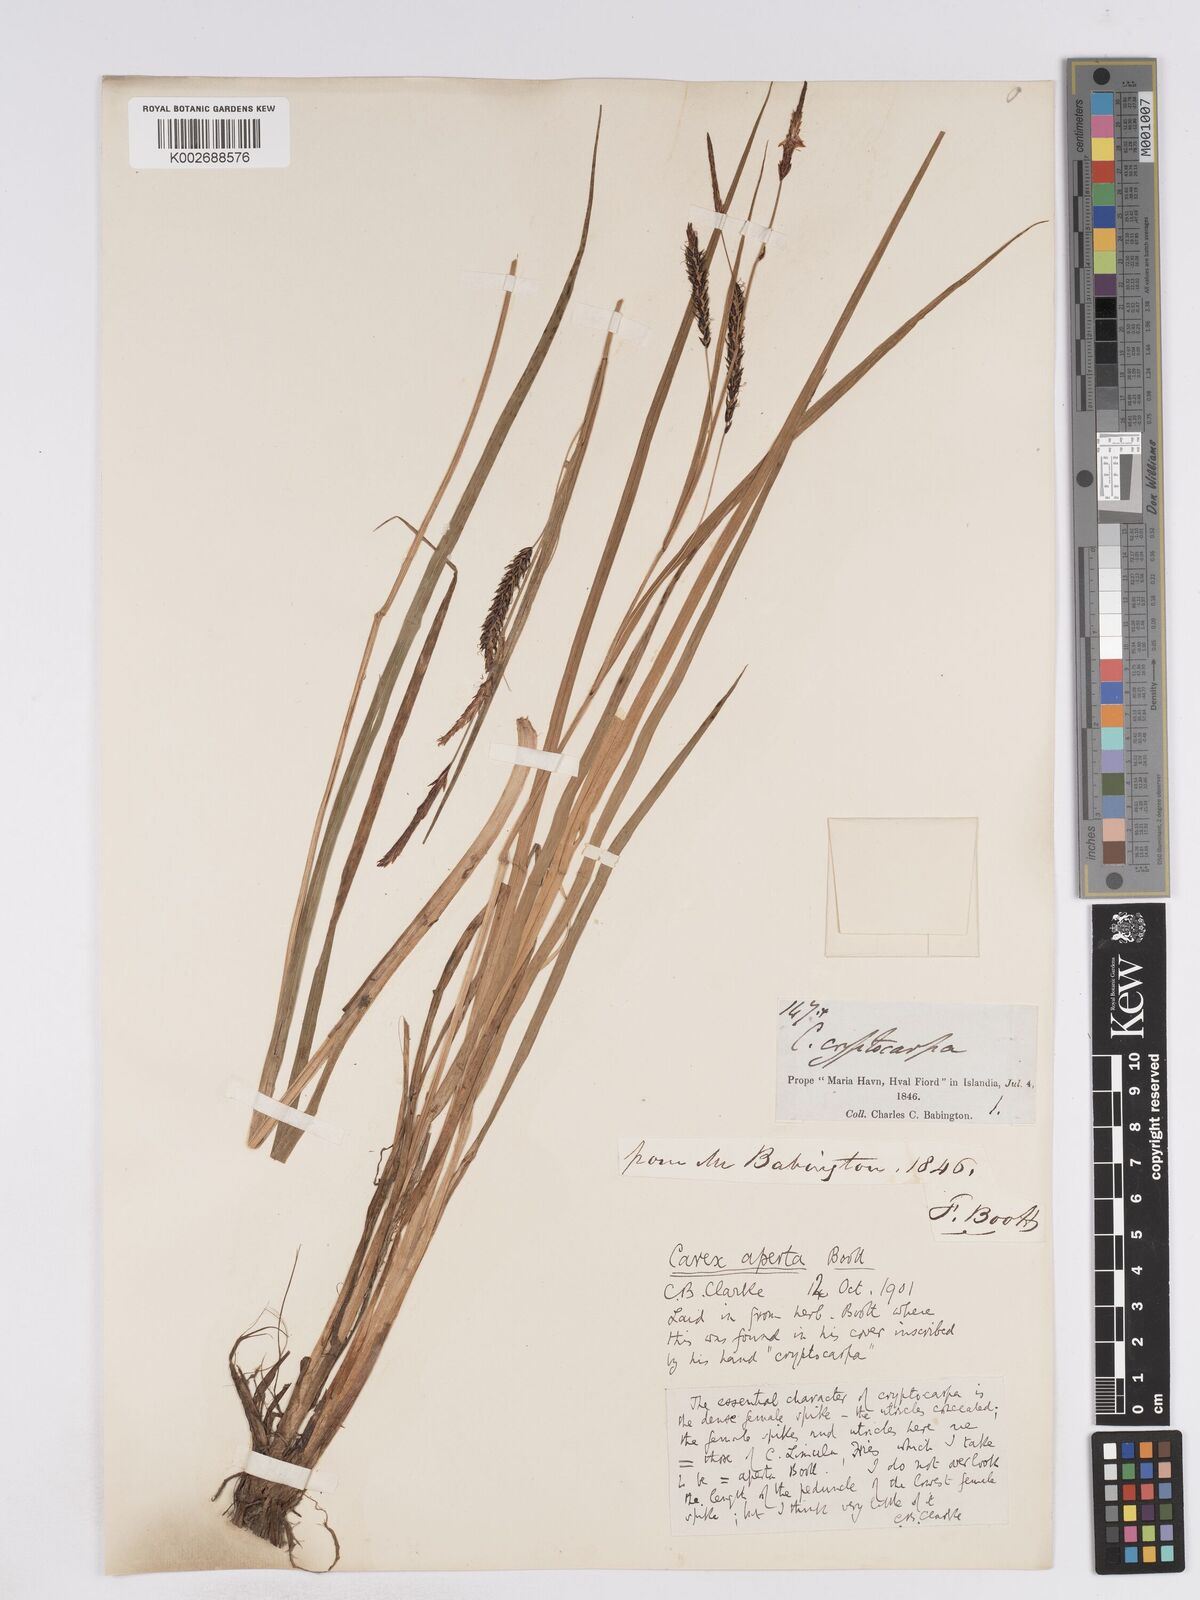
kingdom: Plantae
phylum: Tracheophyta
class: Liliopsida
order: Poales
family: Cyperaceae
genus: Carex
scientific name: Carex lyngbyei
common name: Lyngbye's sedge
